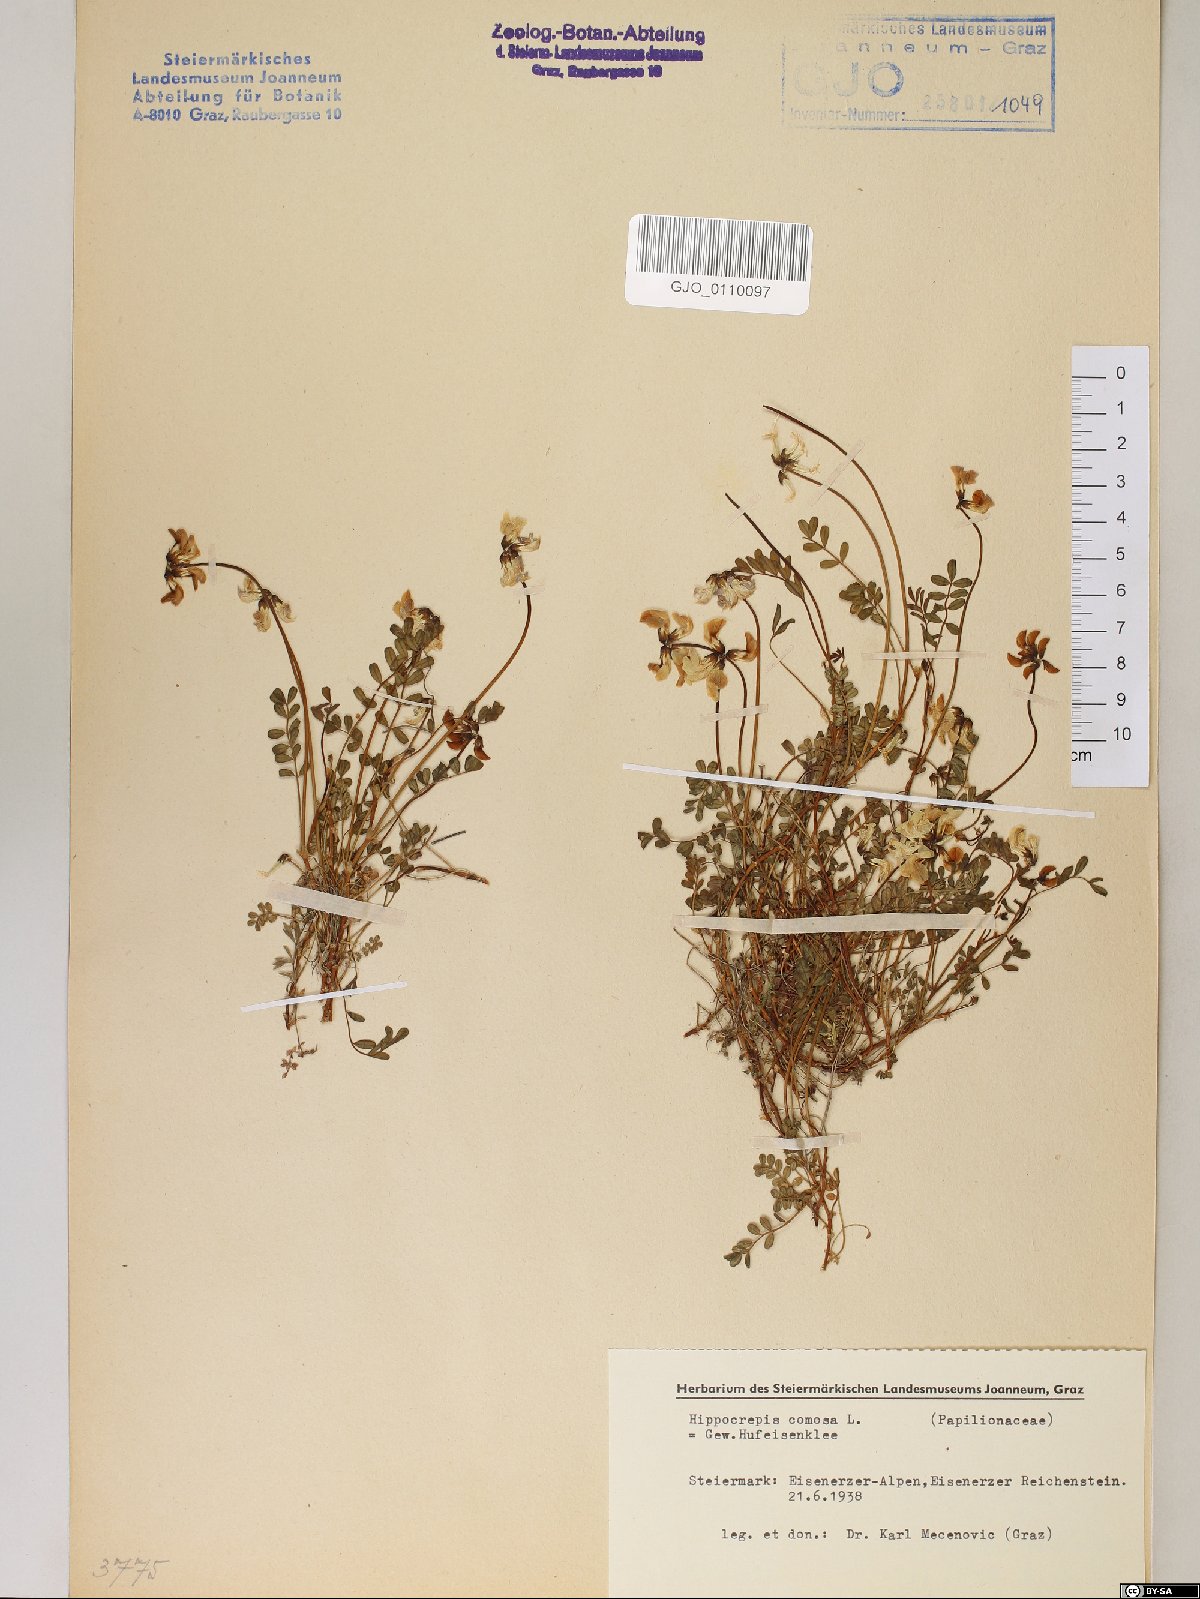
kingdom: Plantae
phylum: Tracheophyta
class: Magnoliopsida
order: Fabales
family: Fabaceae
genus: Hippocrepis
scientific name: Hippocrepis comosa
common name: Horseshoe vetch
